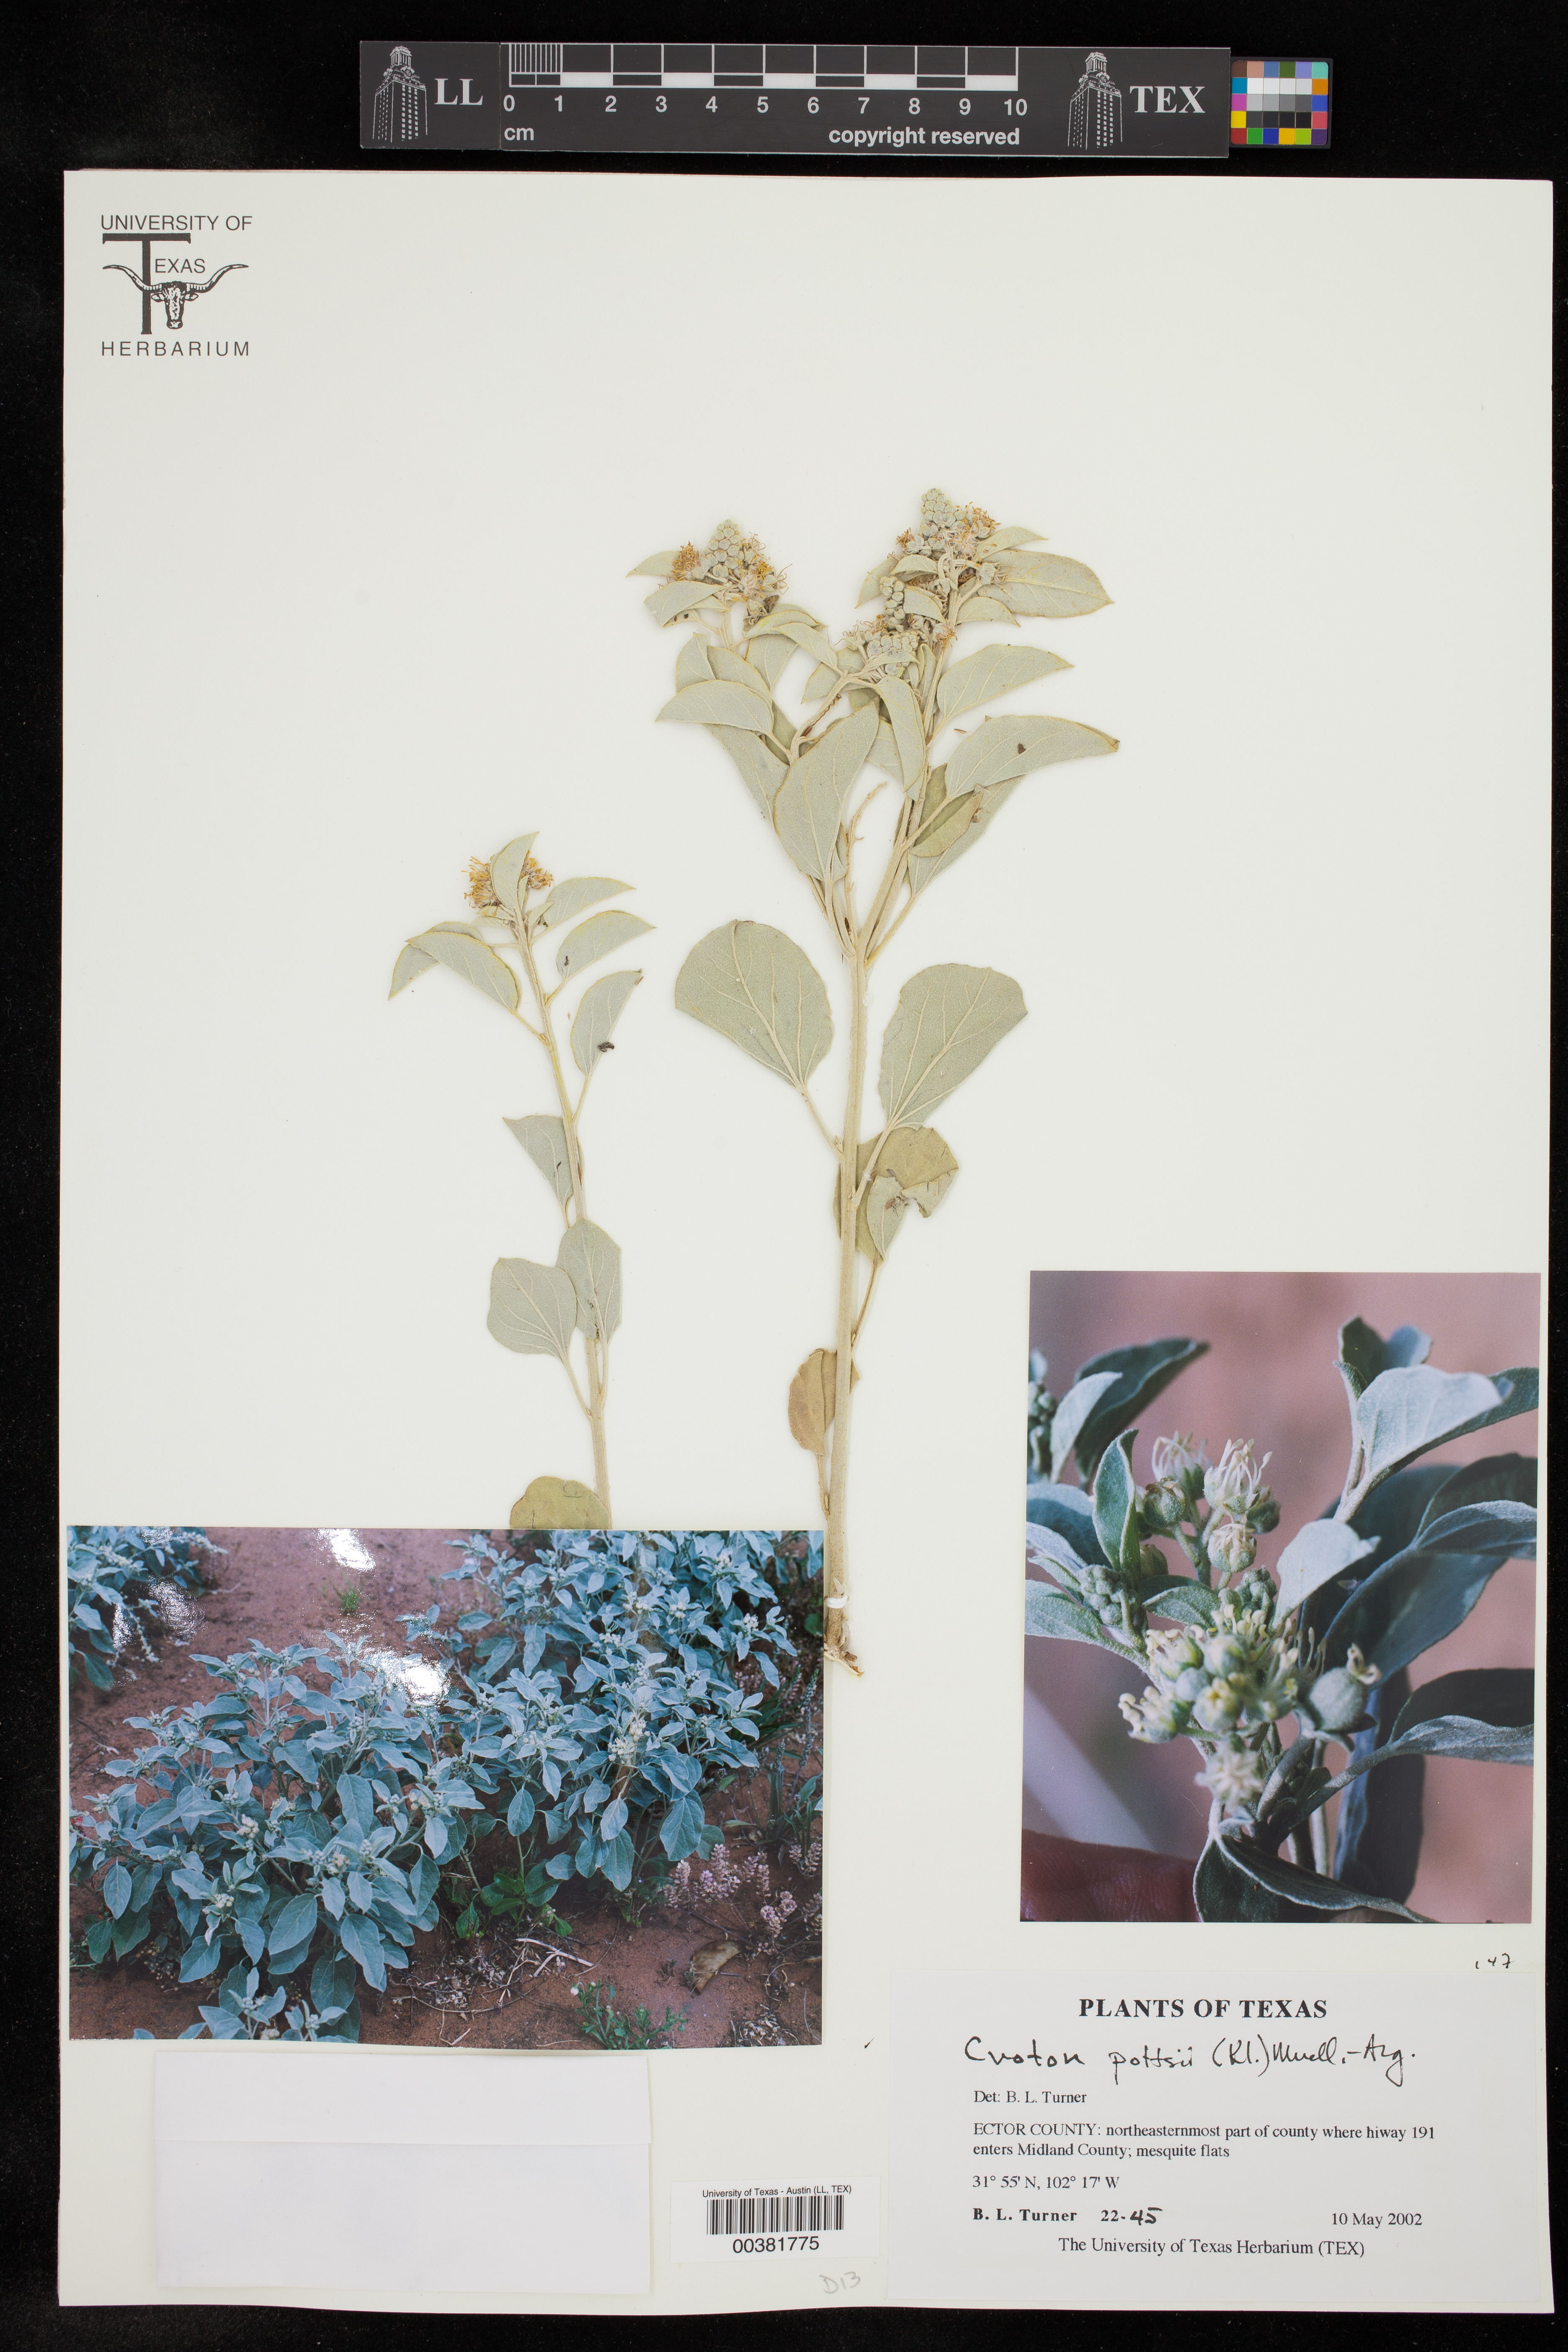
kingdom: Plantae
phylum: Tracheophyta
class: Magnoliopsida
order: Malpighiales
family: Euphorbiaceae
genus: Croton
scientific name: Croton pottsii
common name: Leatherweed
